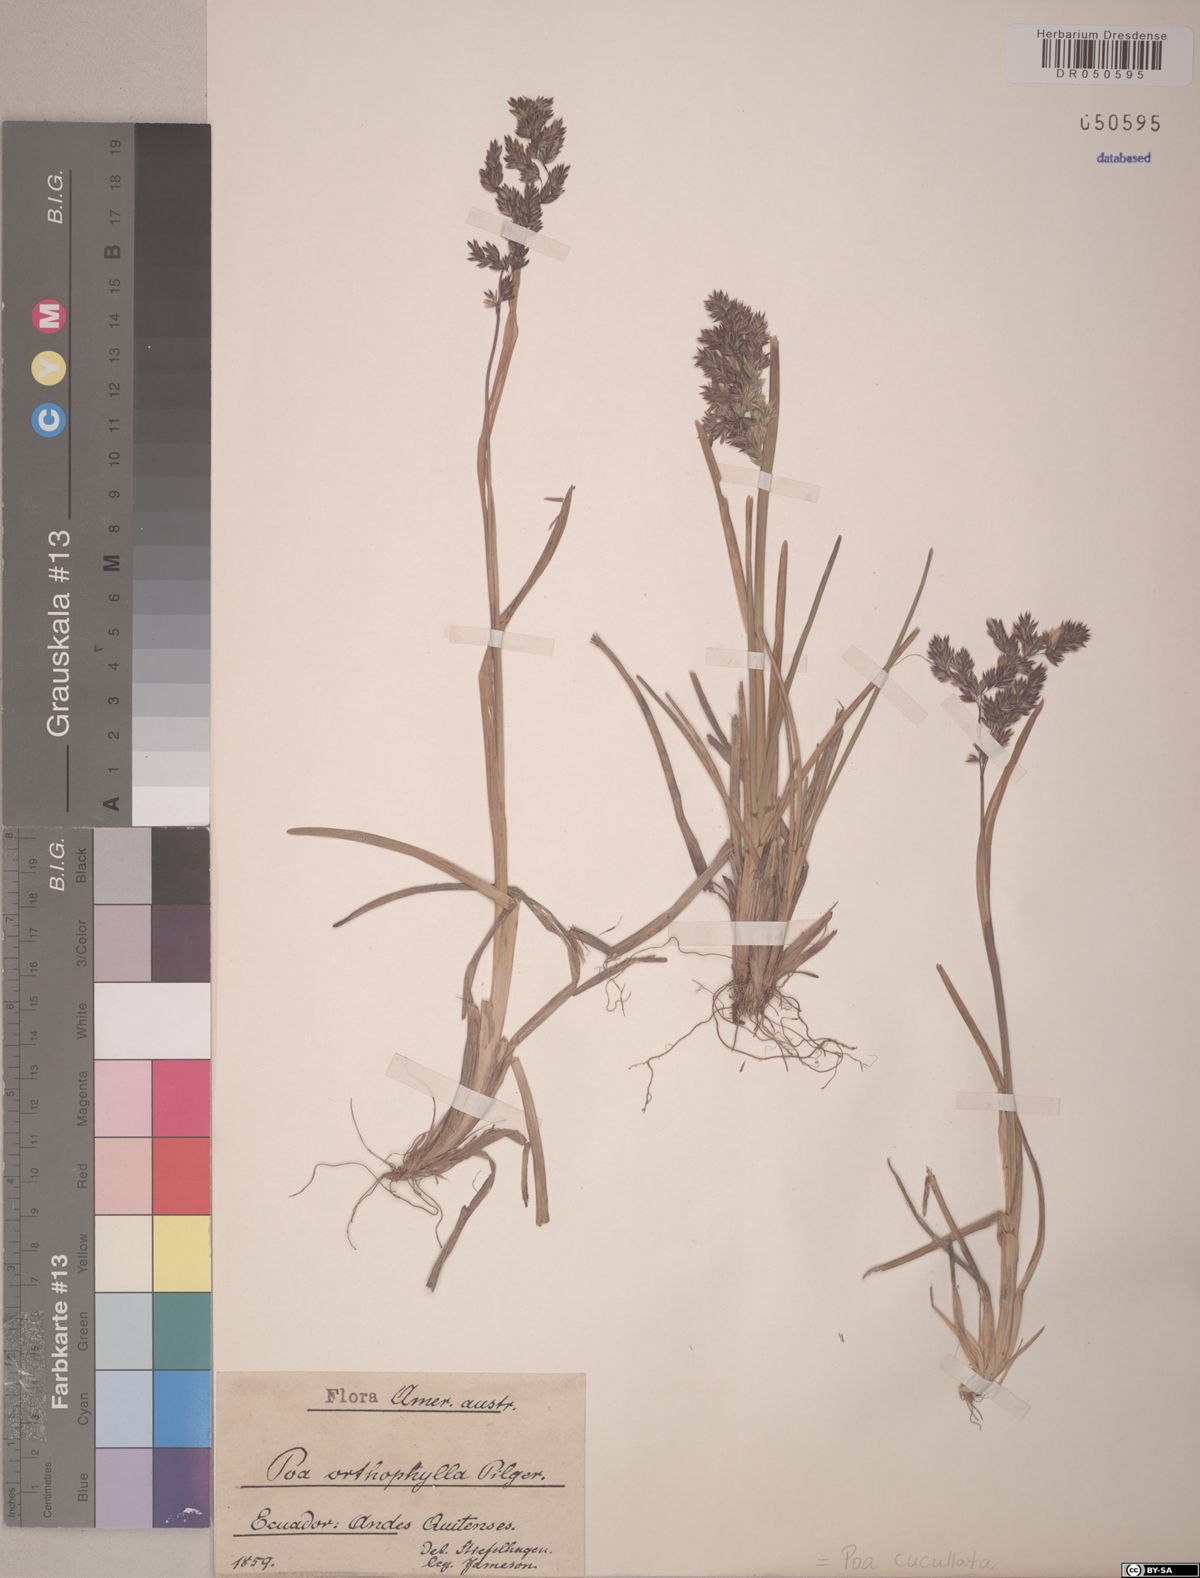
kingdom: Plantae
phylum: Tracheophyta
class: Liliopsida
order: Poales
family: Poaceae
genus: Poa
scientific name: Poa cucullata
